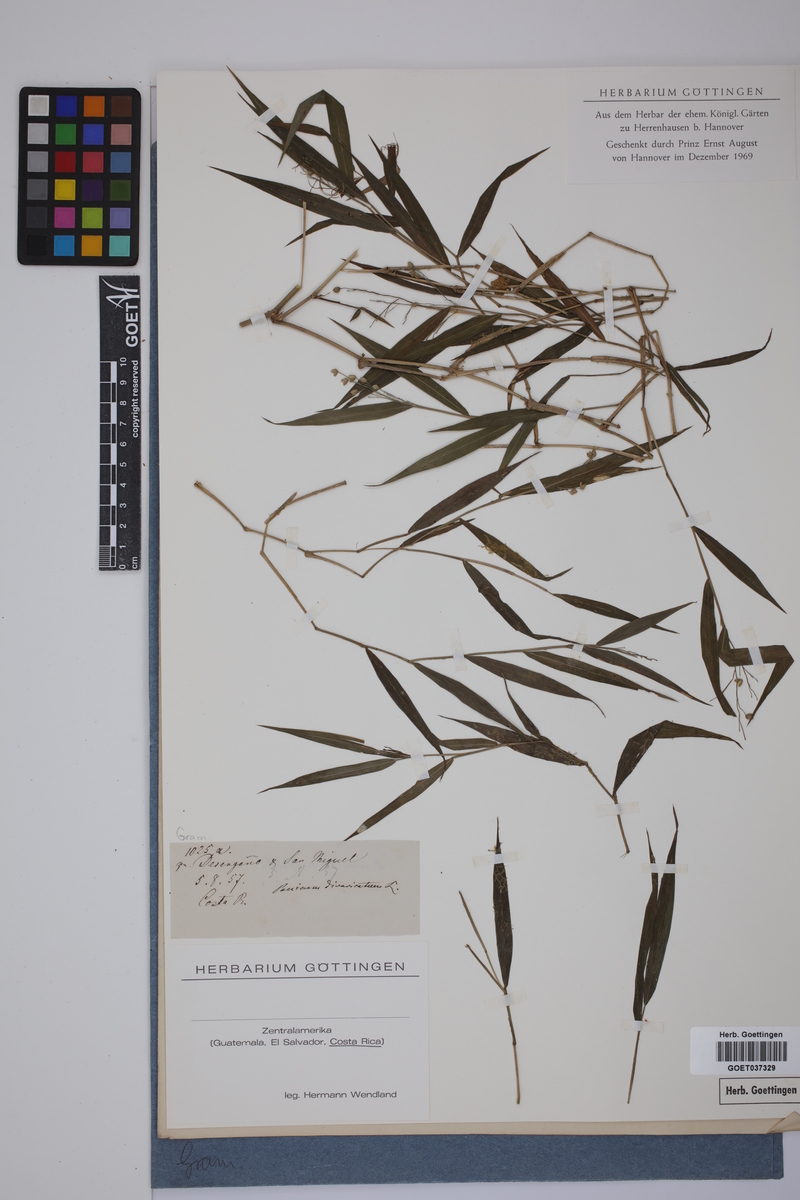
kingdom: Plantae
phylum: Tracheophyta
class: Liliopsida
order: Poales
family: Poaceae
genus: Lasiacis
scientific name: Lasiacis divaricata
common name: Smallcane
